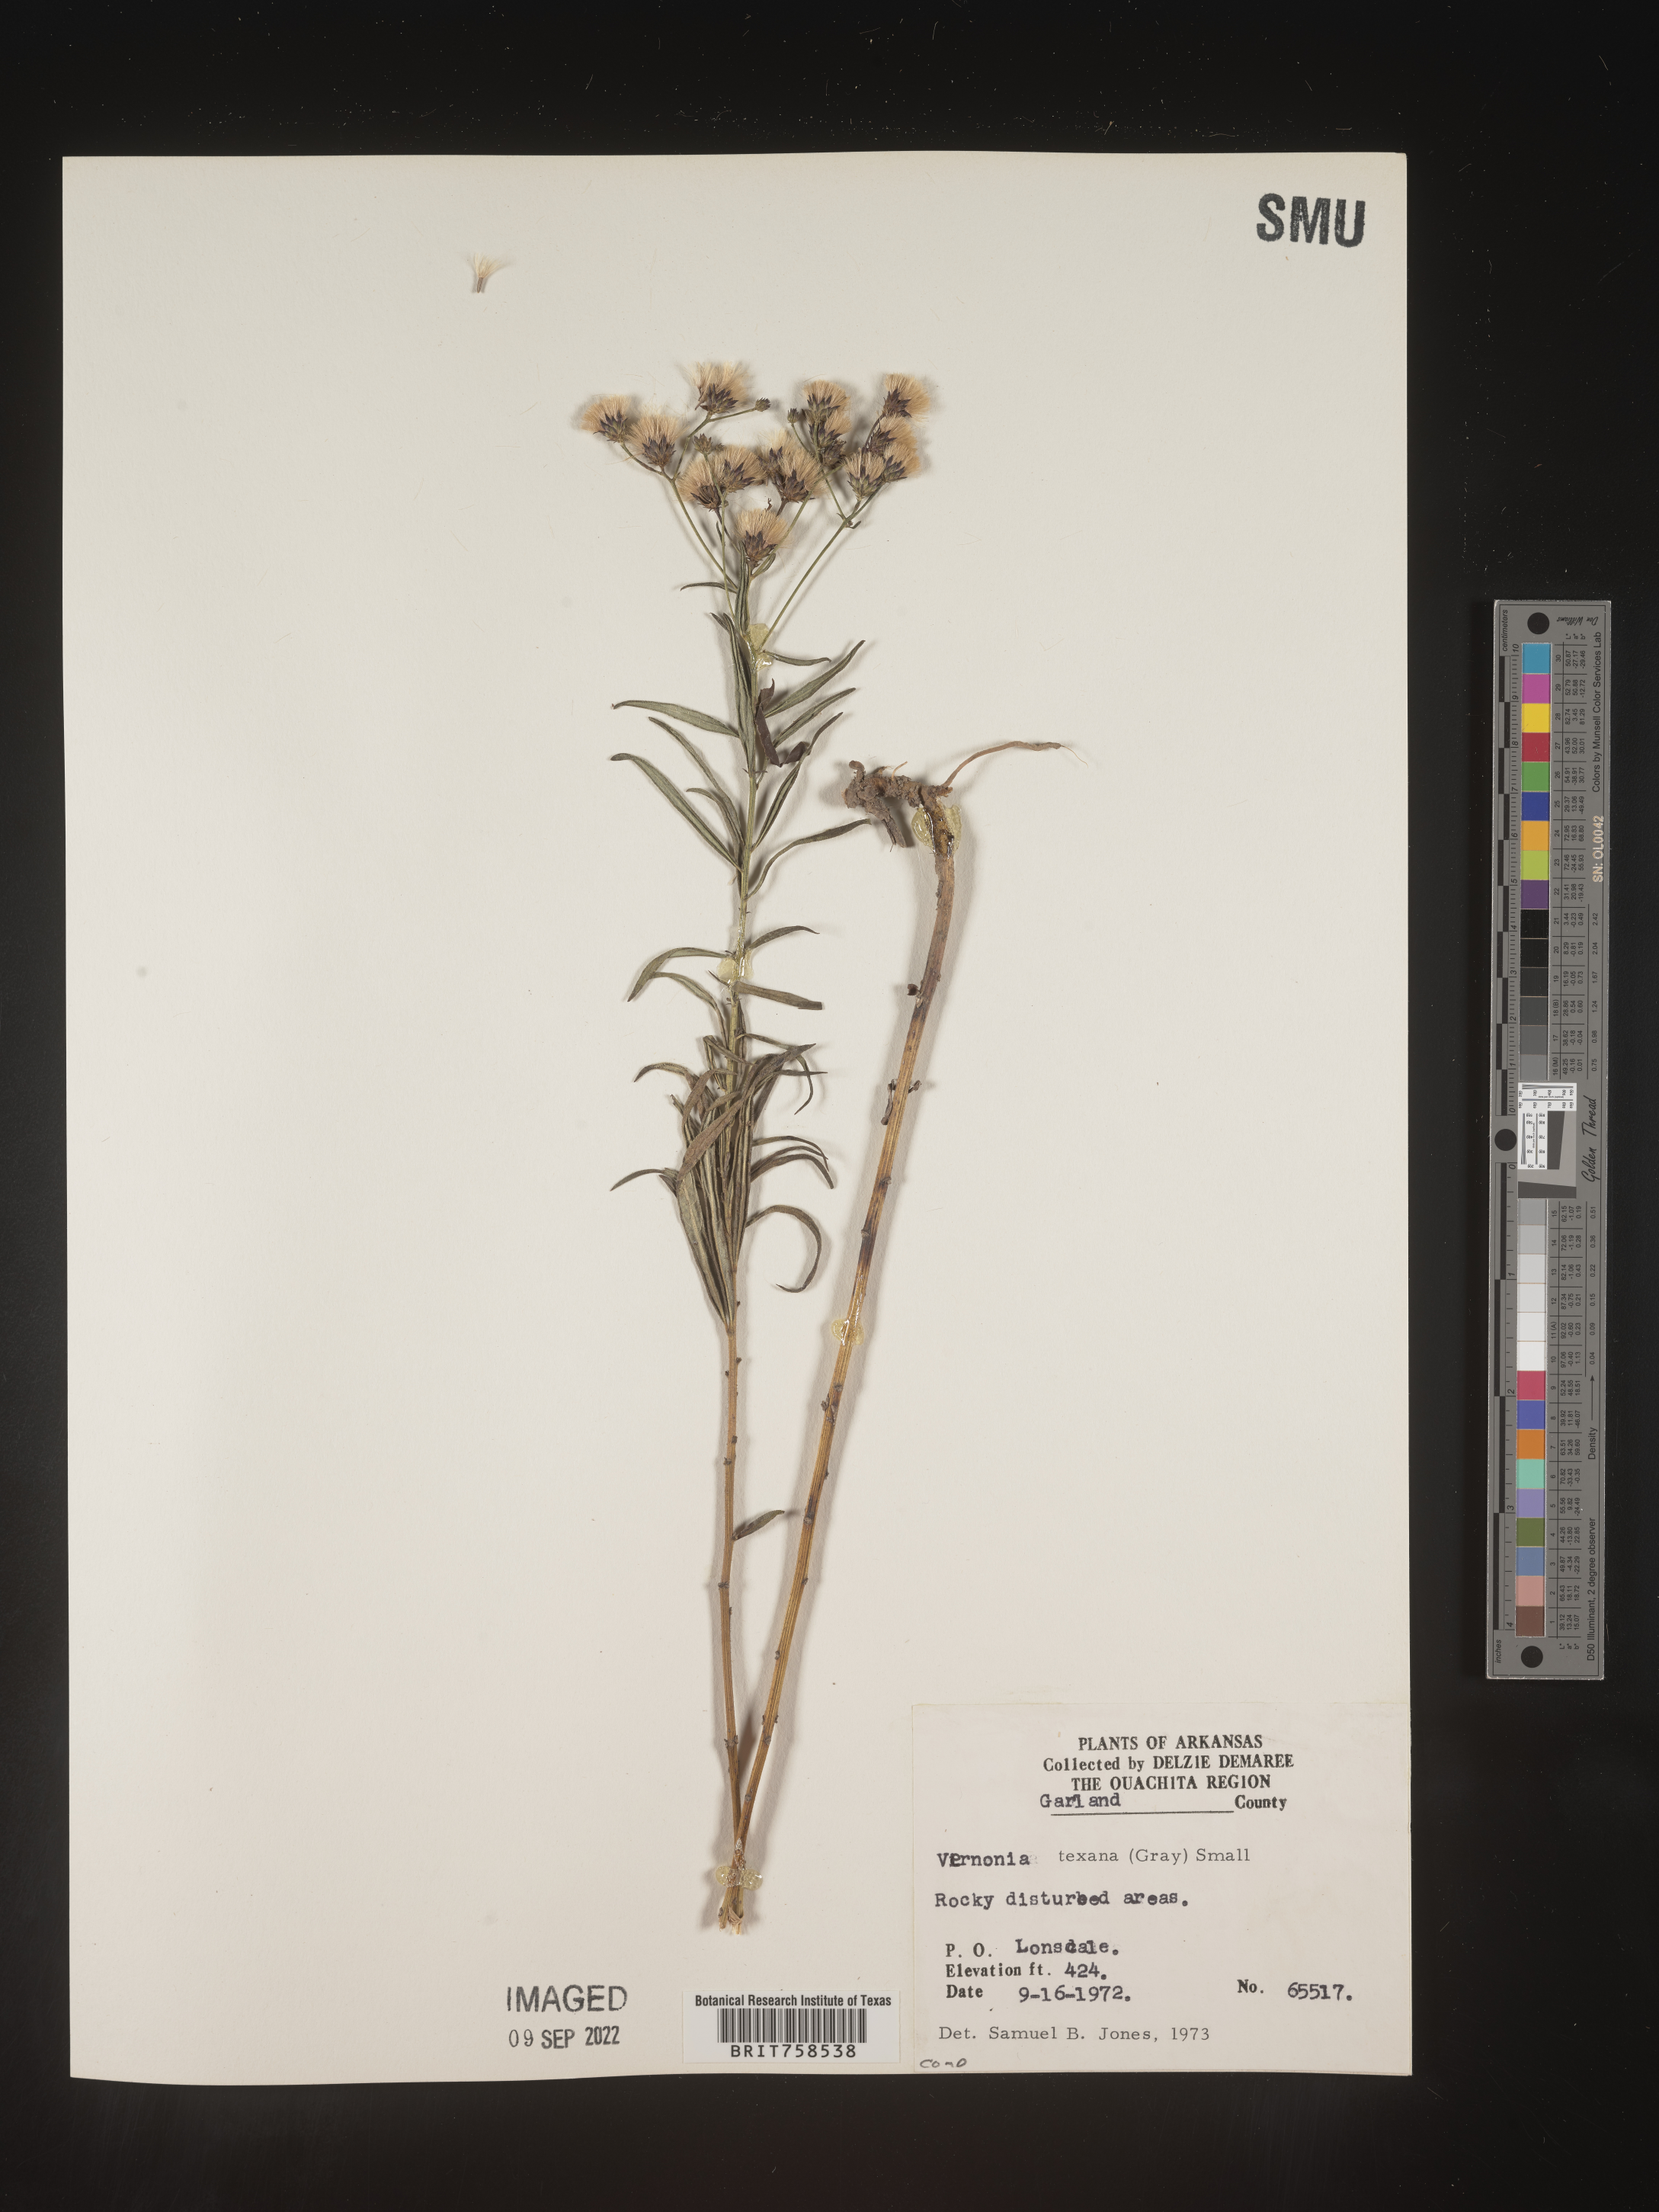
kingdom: Plantae
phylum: Tracheophyta
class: Magnoliopsida
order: Asterales
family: Asteraceae
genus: Vernonia
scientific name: Vernonia texana
